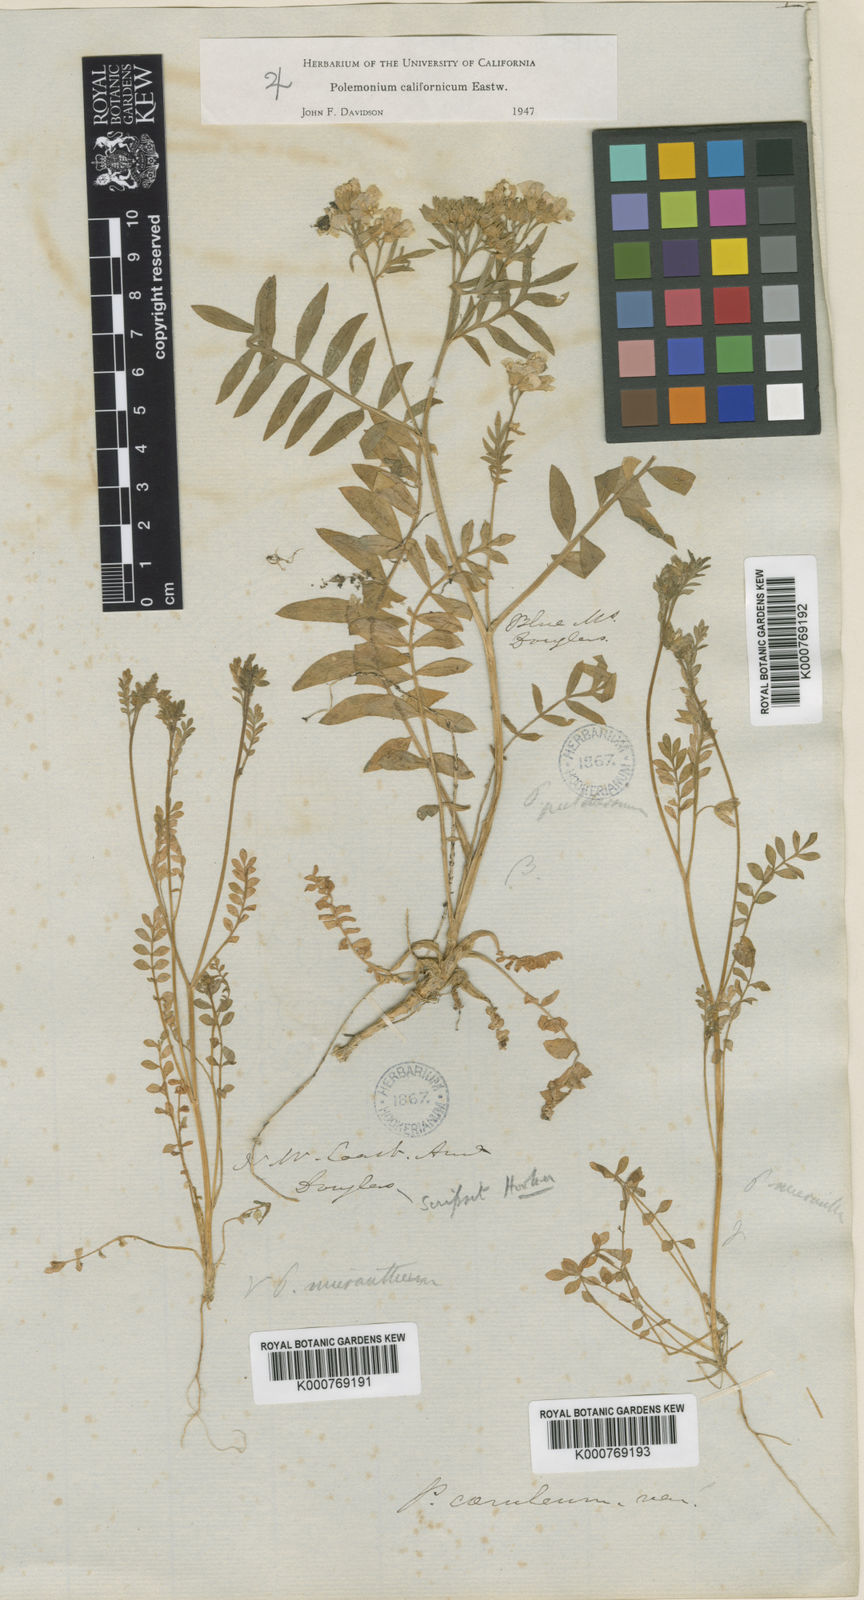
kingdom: Plantae
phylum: Tracheophyta
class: Magnoliopsida
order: Ericales
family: Polemoniaceae
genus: Polemonium
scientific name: Polemonium micranthum
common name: Annual jacob's-ladder
